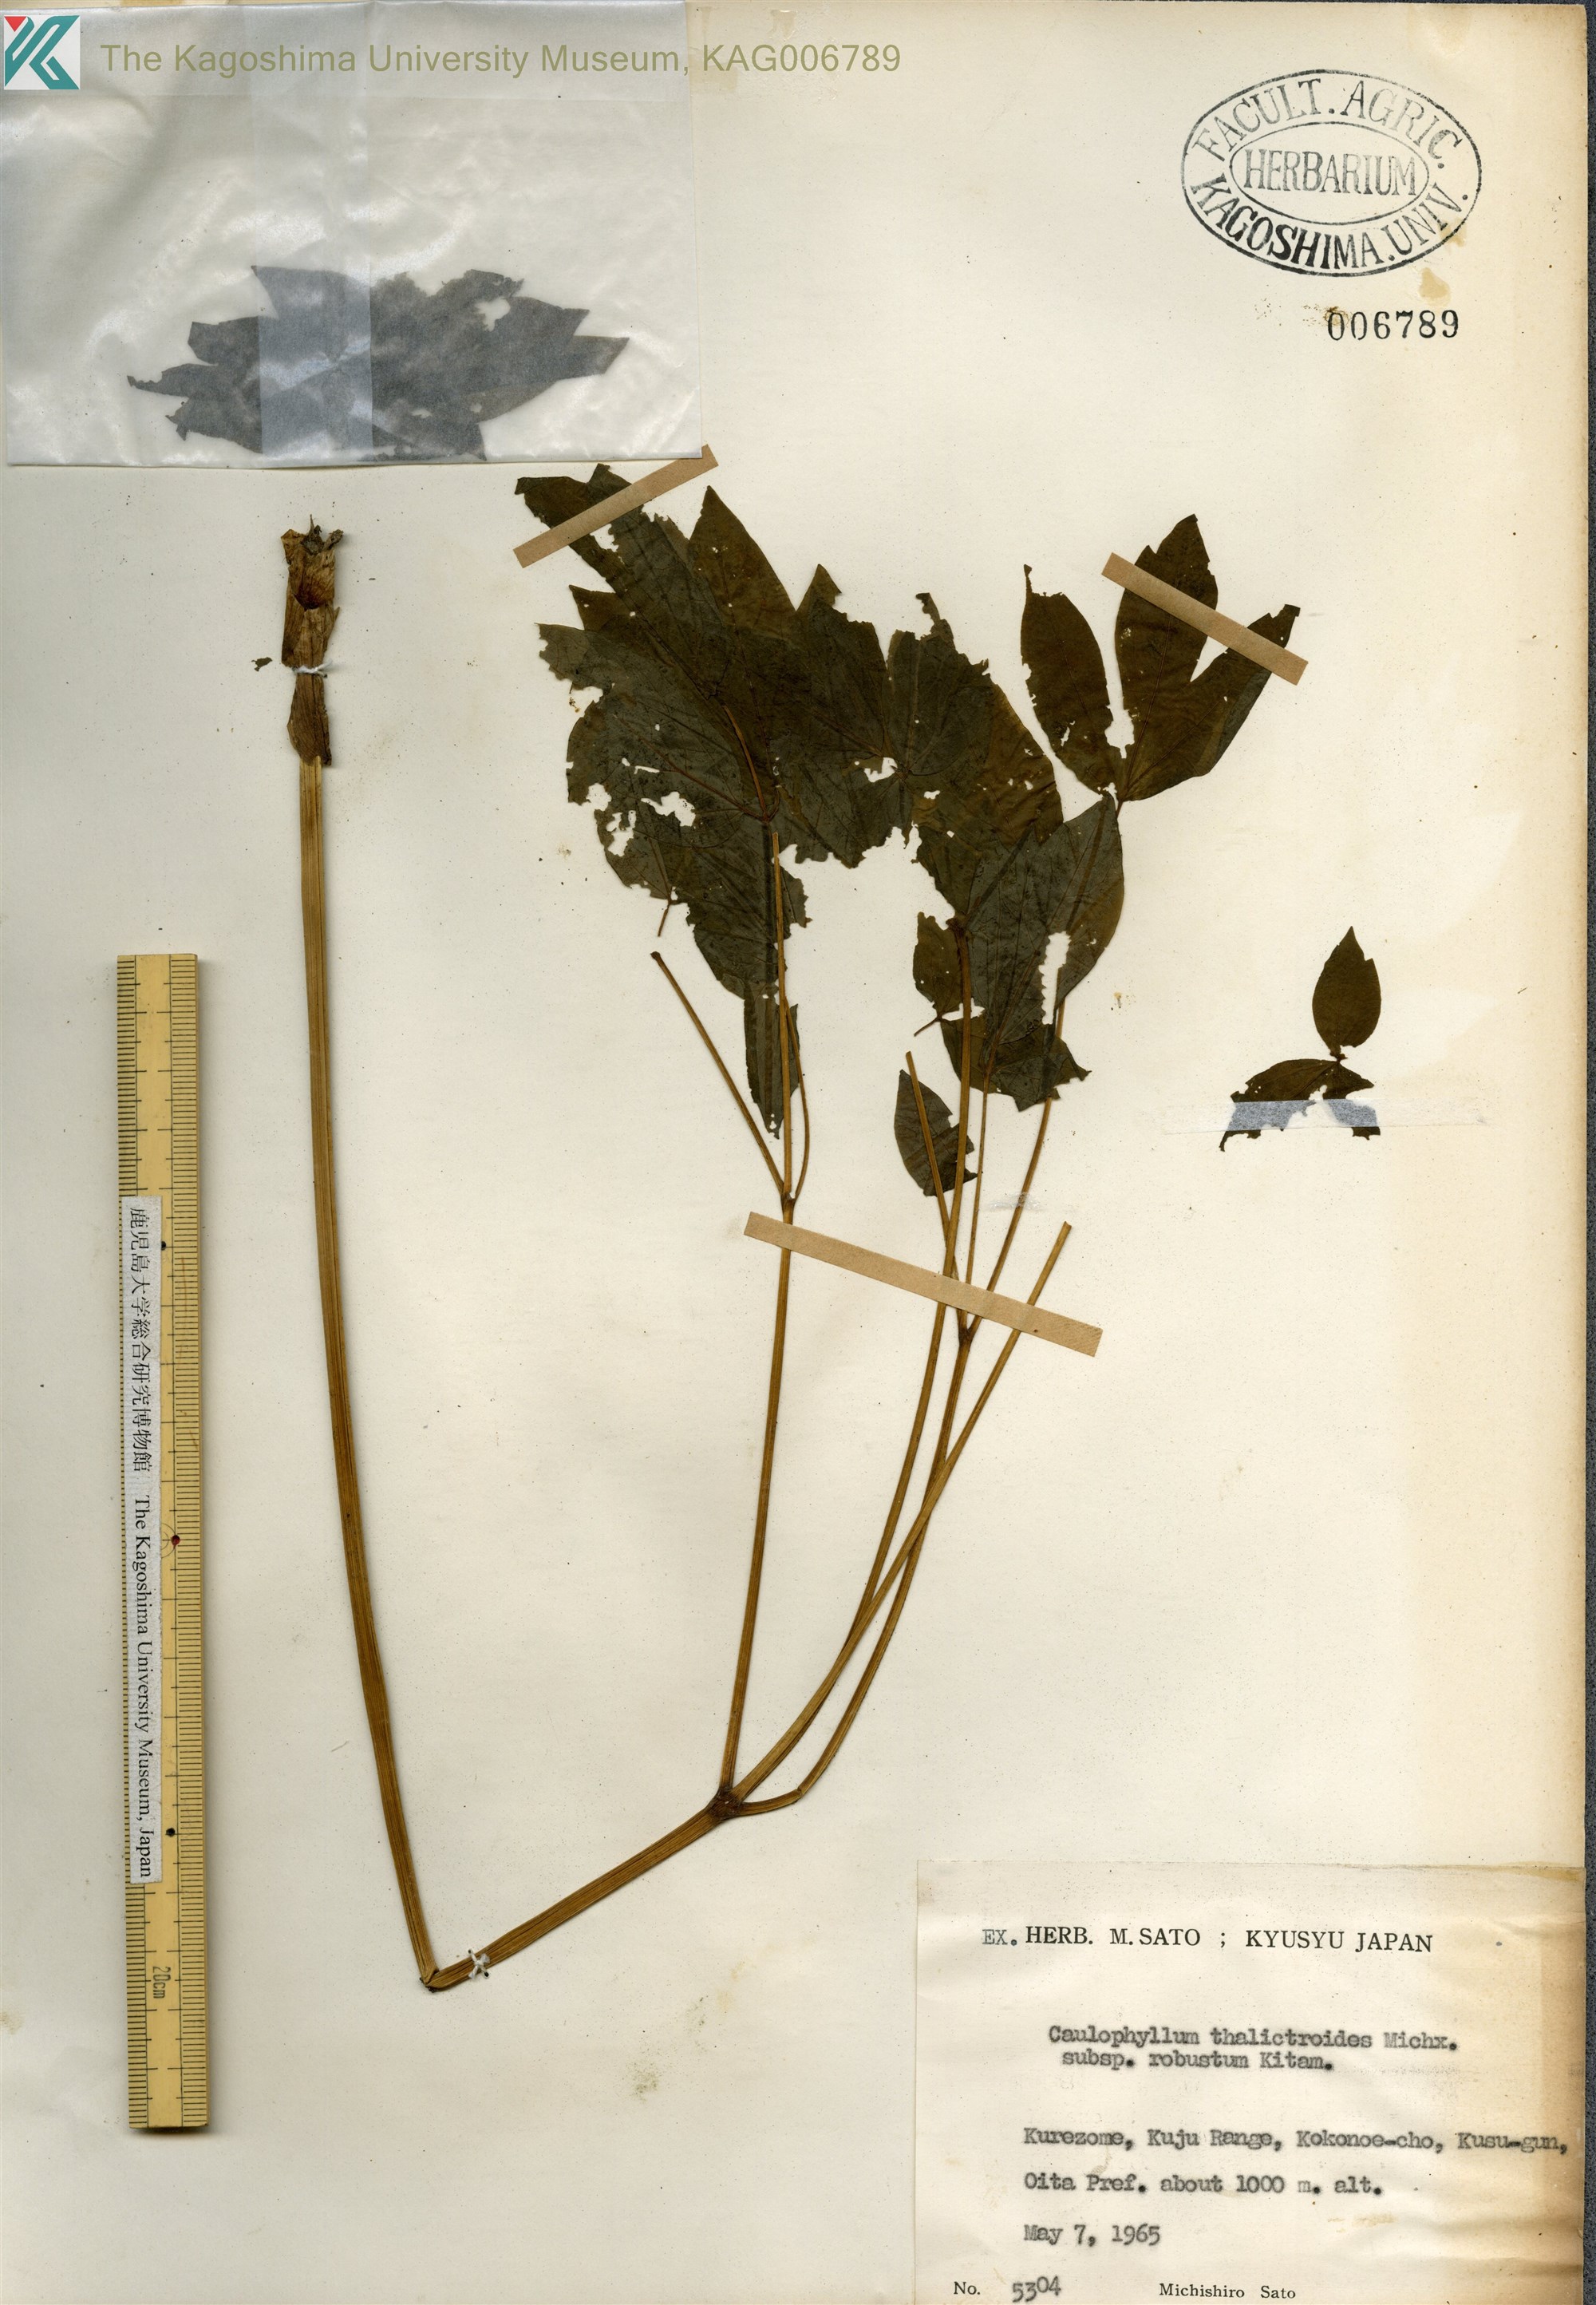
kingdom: Plantae
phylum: Tracheophyta
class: Magnoliopsida
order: Ranunculales
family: Berberidaceae
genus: Caulophyllum
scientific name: Caulophyllum robustum
